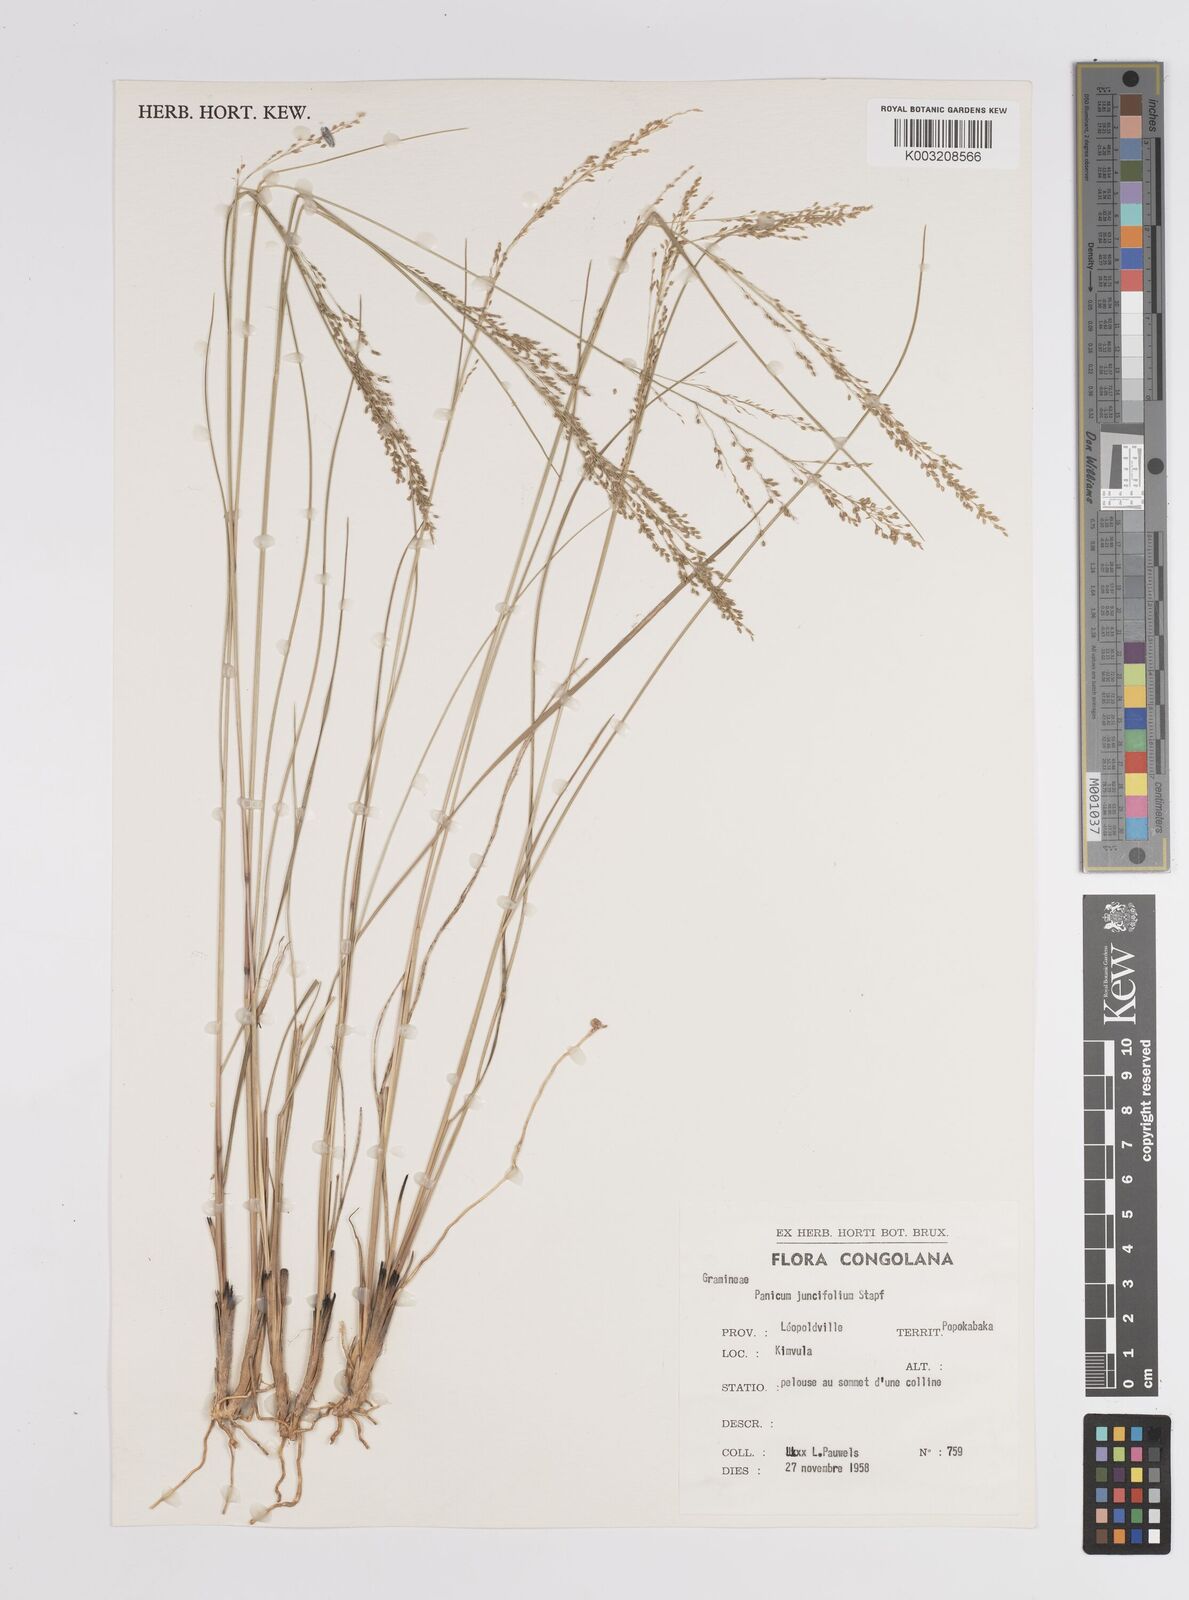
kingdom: Plantae
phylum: Tracheophyta
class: Liliopsida
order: Poales
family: Poaceae
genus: Trichanthecium
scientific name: Trichanthecium natalense
